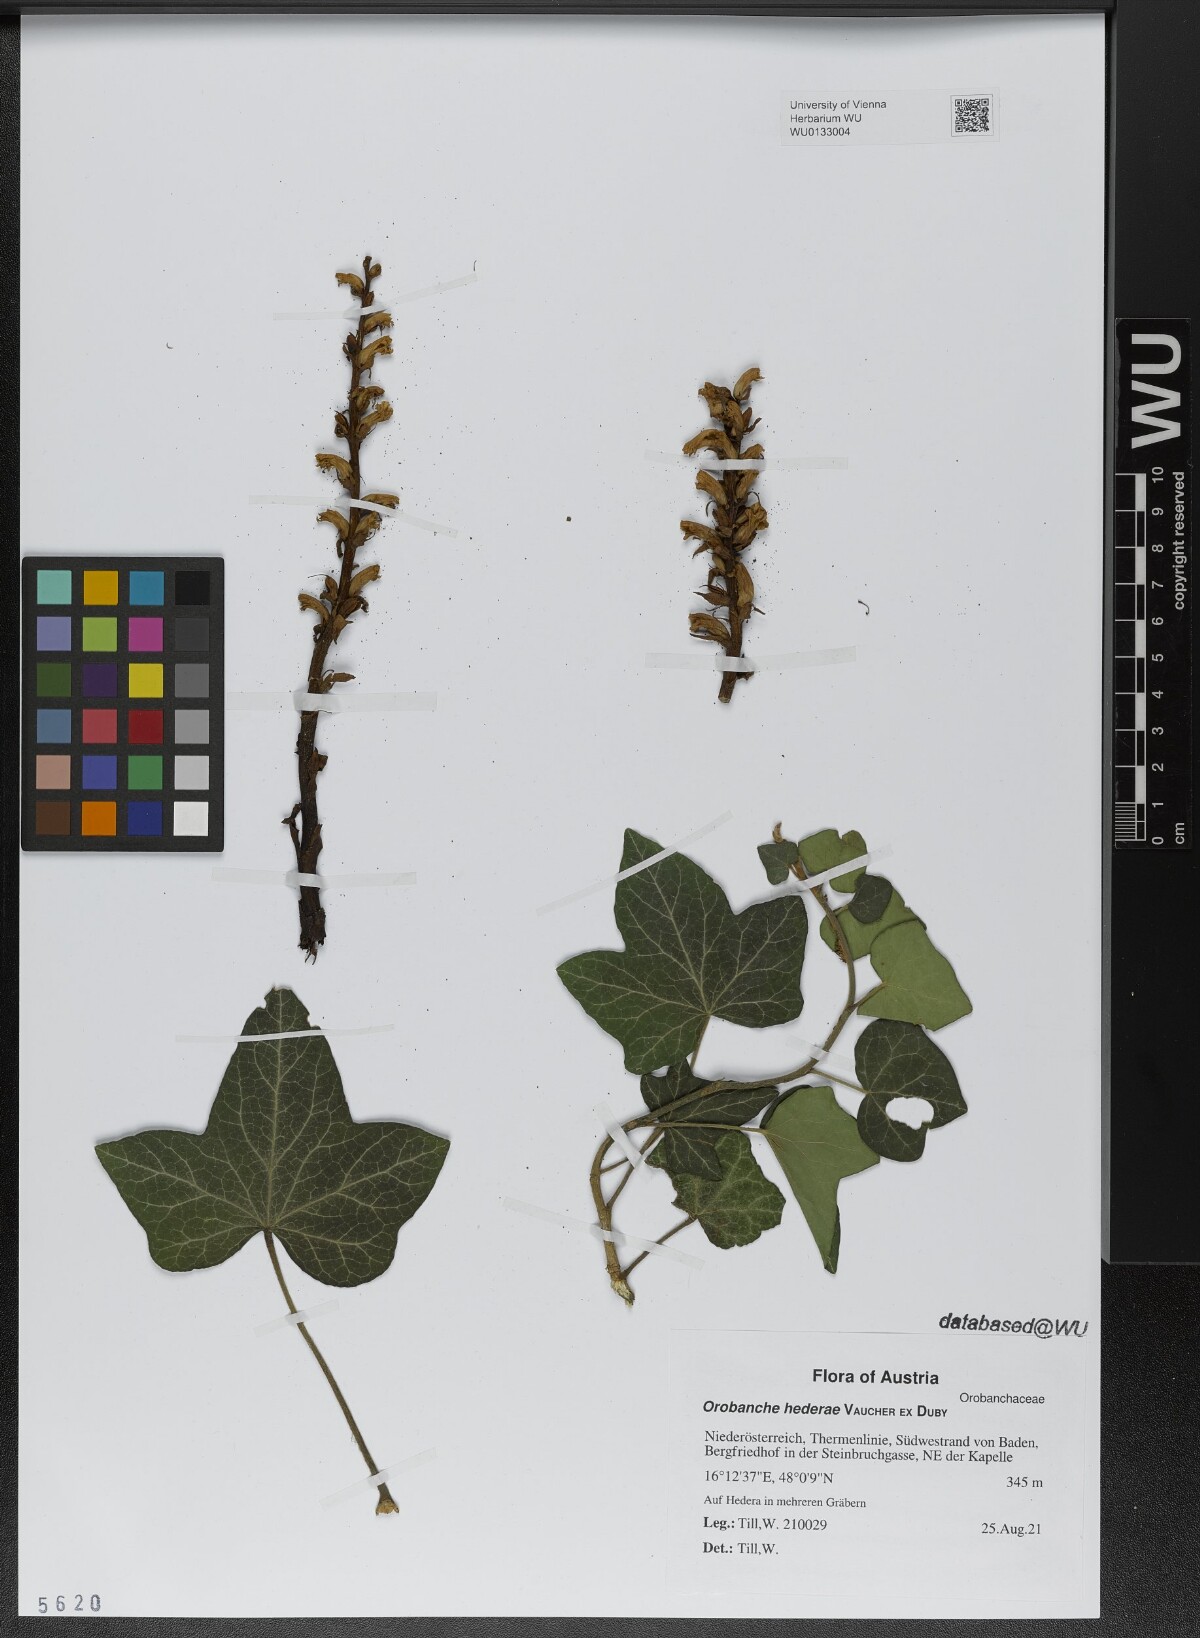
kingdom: Plantae
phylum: Tracheophyta
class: Magnoliopsida
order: Lamiales
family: Orobanchaceae
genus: Orobanche
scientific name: Orobanche hederae
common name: Ivy broomrape
